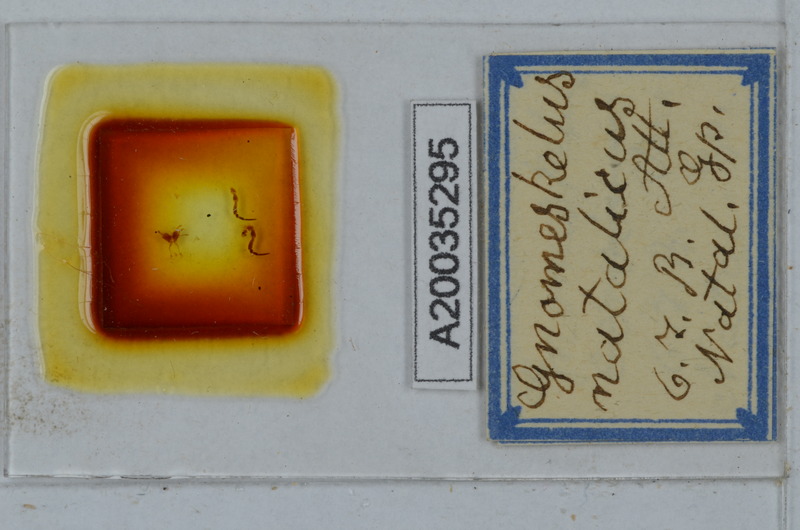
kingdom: Animalia
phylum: Arthropoda
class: Diplopoda
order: Polydesmida
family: Dalodesmidae
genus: Gnomeskelus
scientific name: Gnomeskelus natalicus
